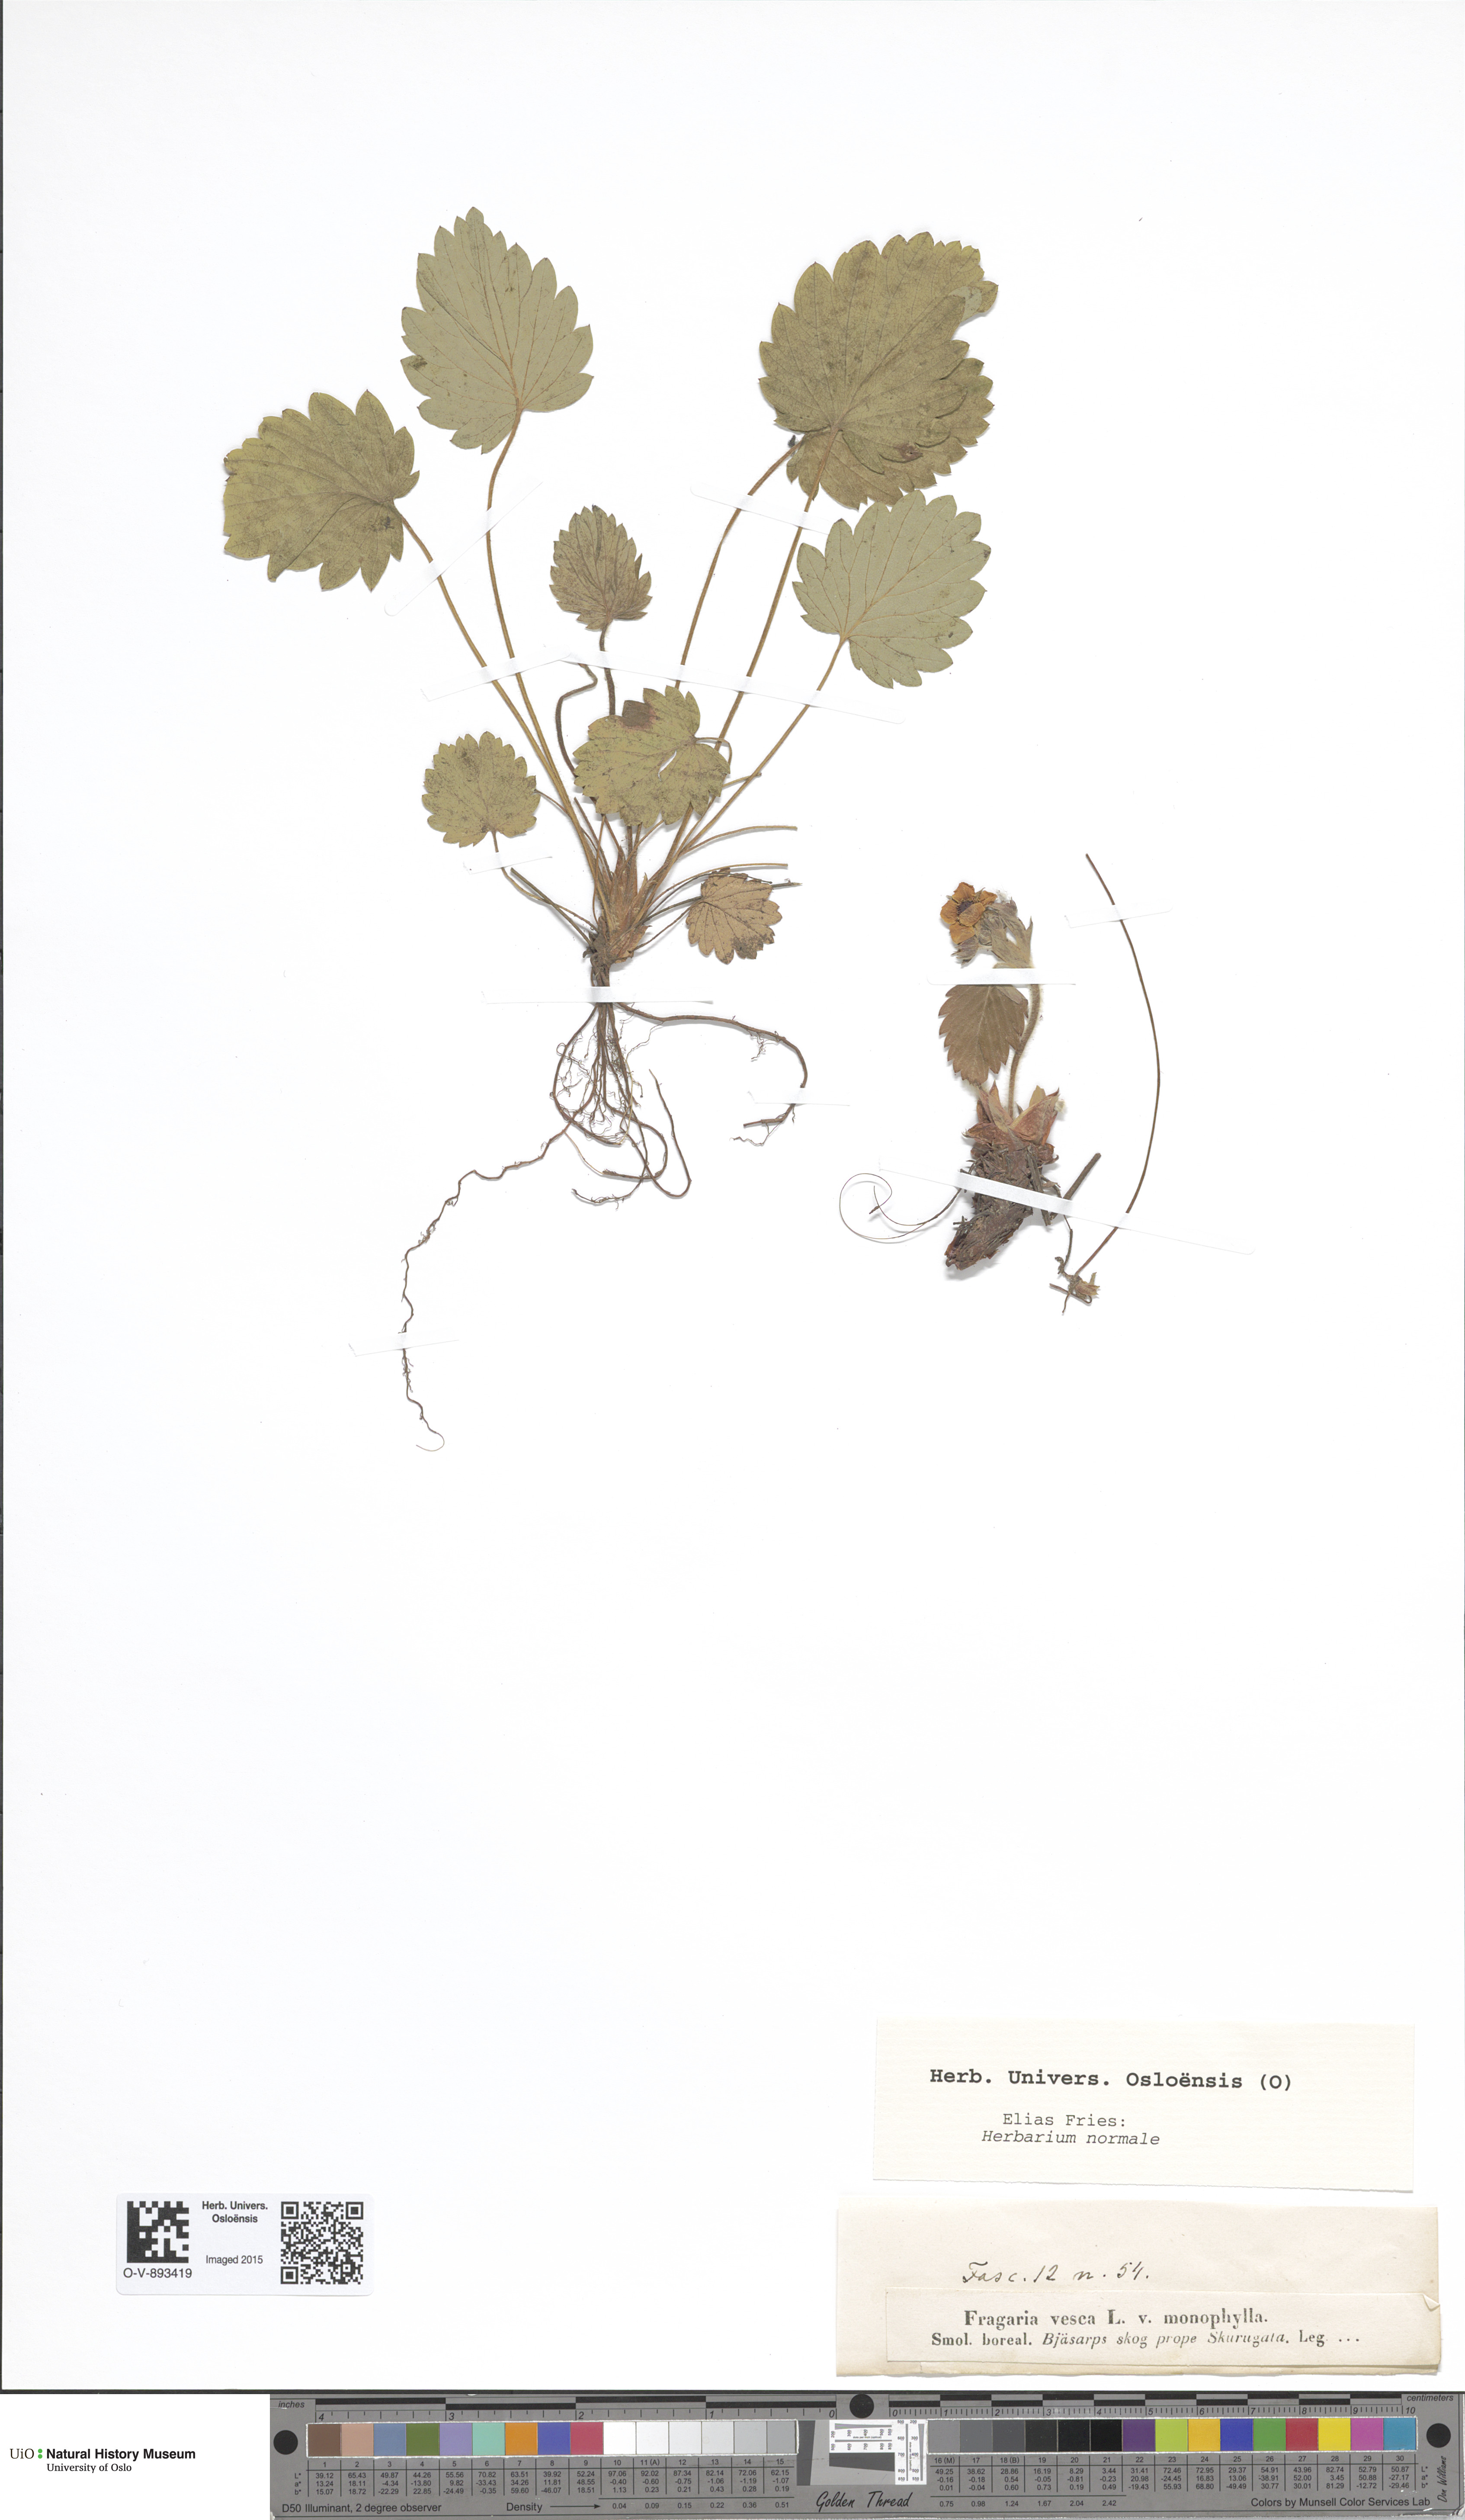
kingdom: Plantae
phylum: Tracheophyta
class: Magnoliopsida
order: Rosales
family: Rosaceae
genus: Fragaria
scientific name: Fragaria vesca
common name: Wild strawberry
